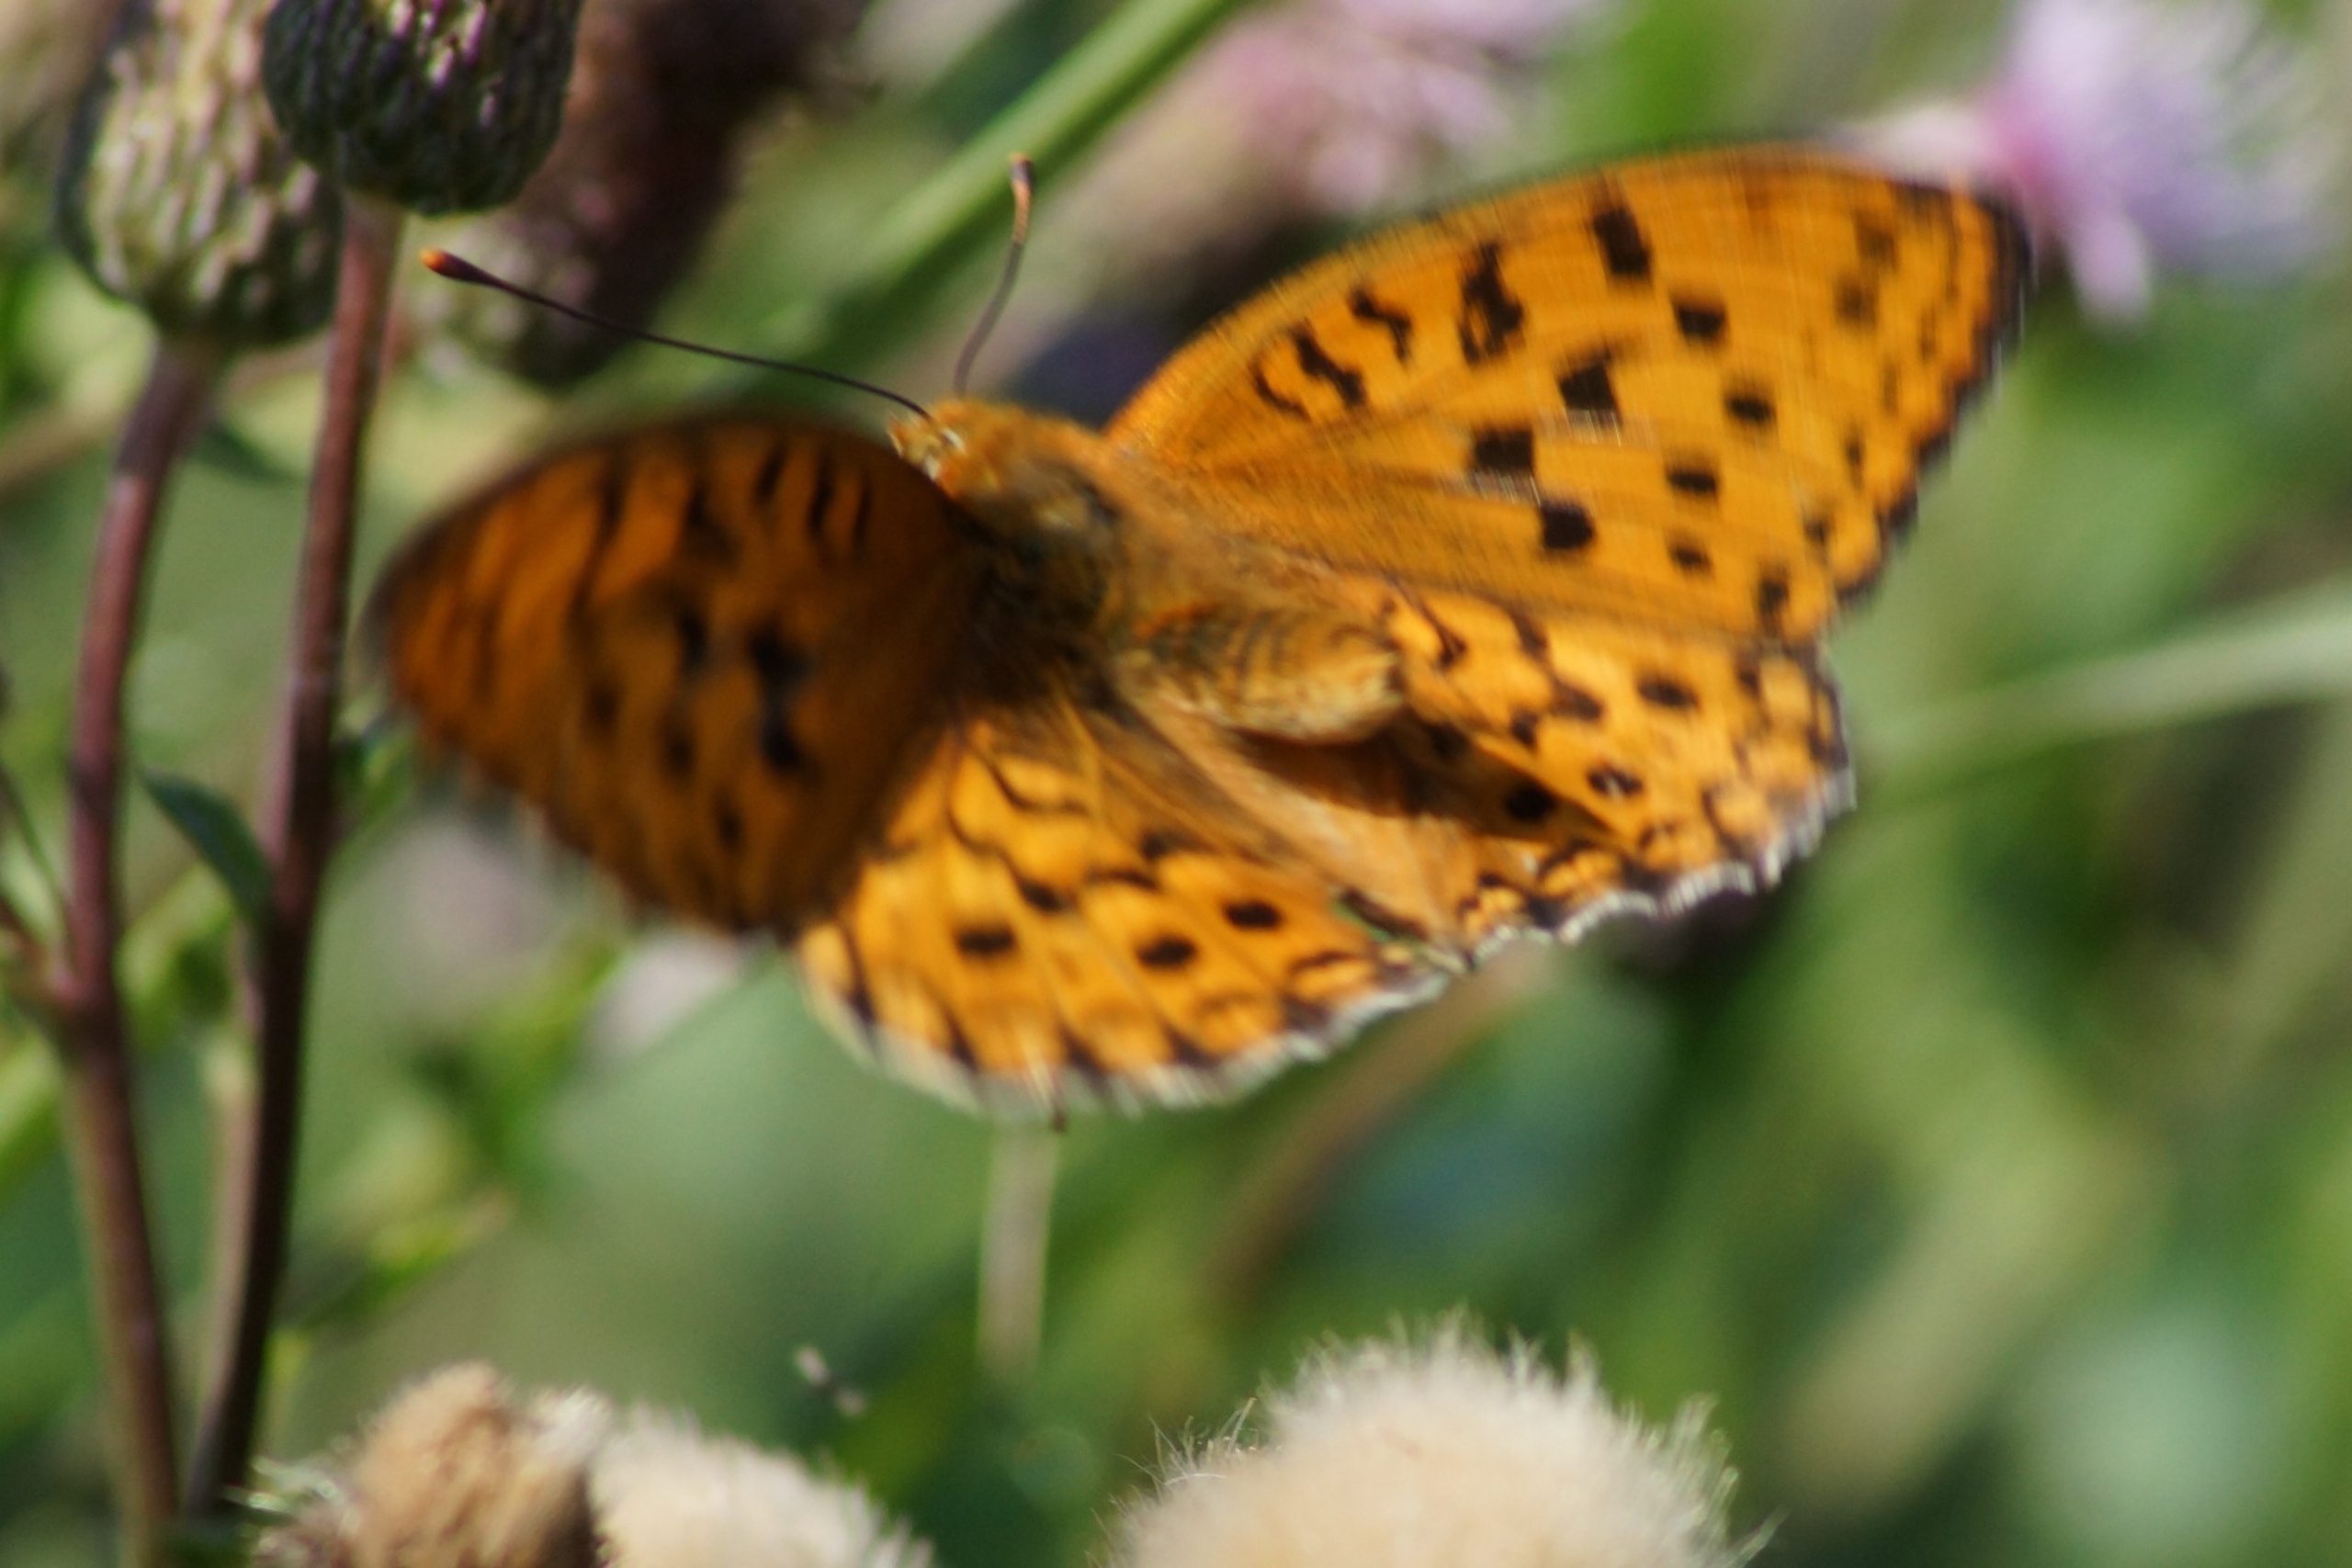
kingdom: Animalia
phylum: Arthropoda
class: Insecta
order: Lepidoptera
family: Nymphalidae
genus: Fabriciana
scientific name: Fabriciana adippe
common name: Skovperlemorsommerfugl
